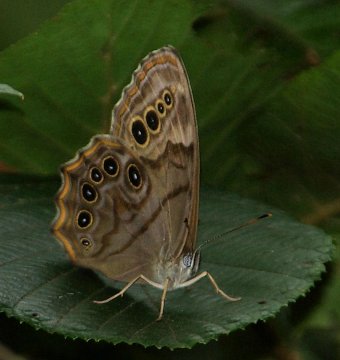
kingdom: Animalia
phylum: Arthropoda
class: Insecta
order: Lepidoptera
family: Nymphalidae
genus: Lethe
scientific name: Lethe anthedon
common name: Northern Pearly-Eye
